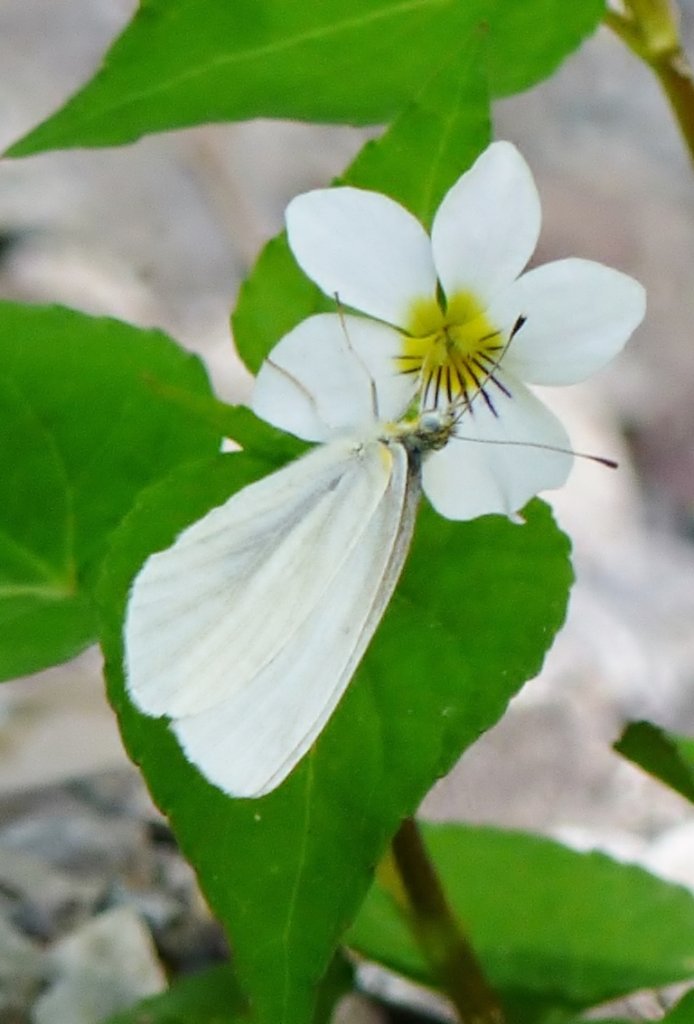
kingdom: Animalia
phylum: Arthropoda
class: Insecta
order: Lepidoptera
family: Pieridae
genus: Pieris
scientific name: Pieris virginiensis
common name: West Virginia White
